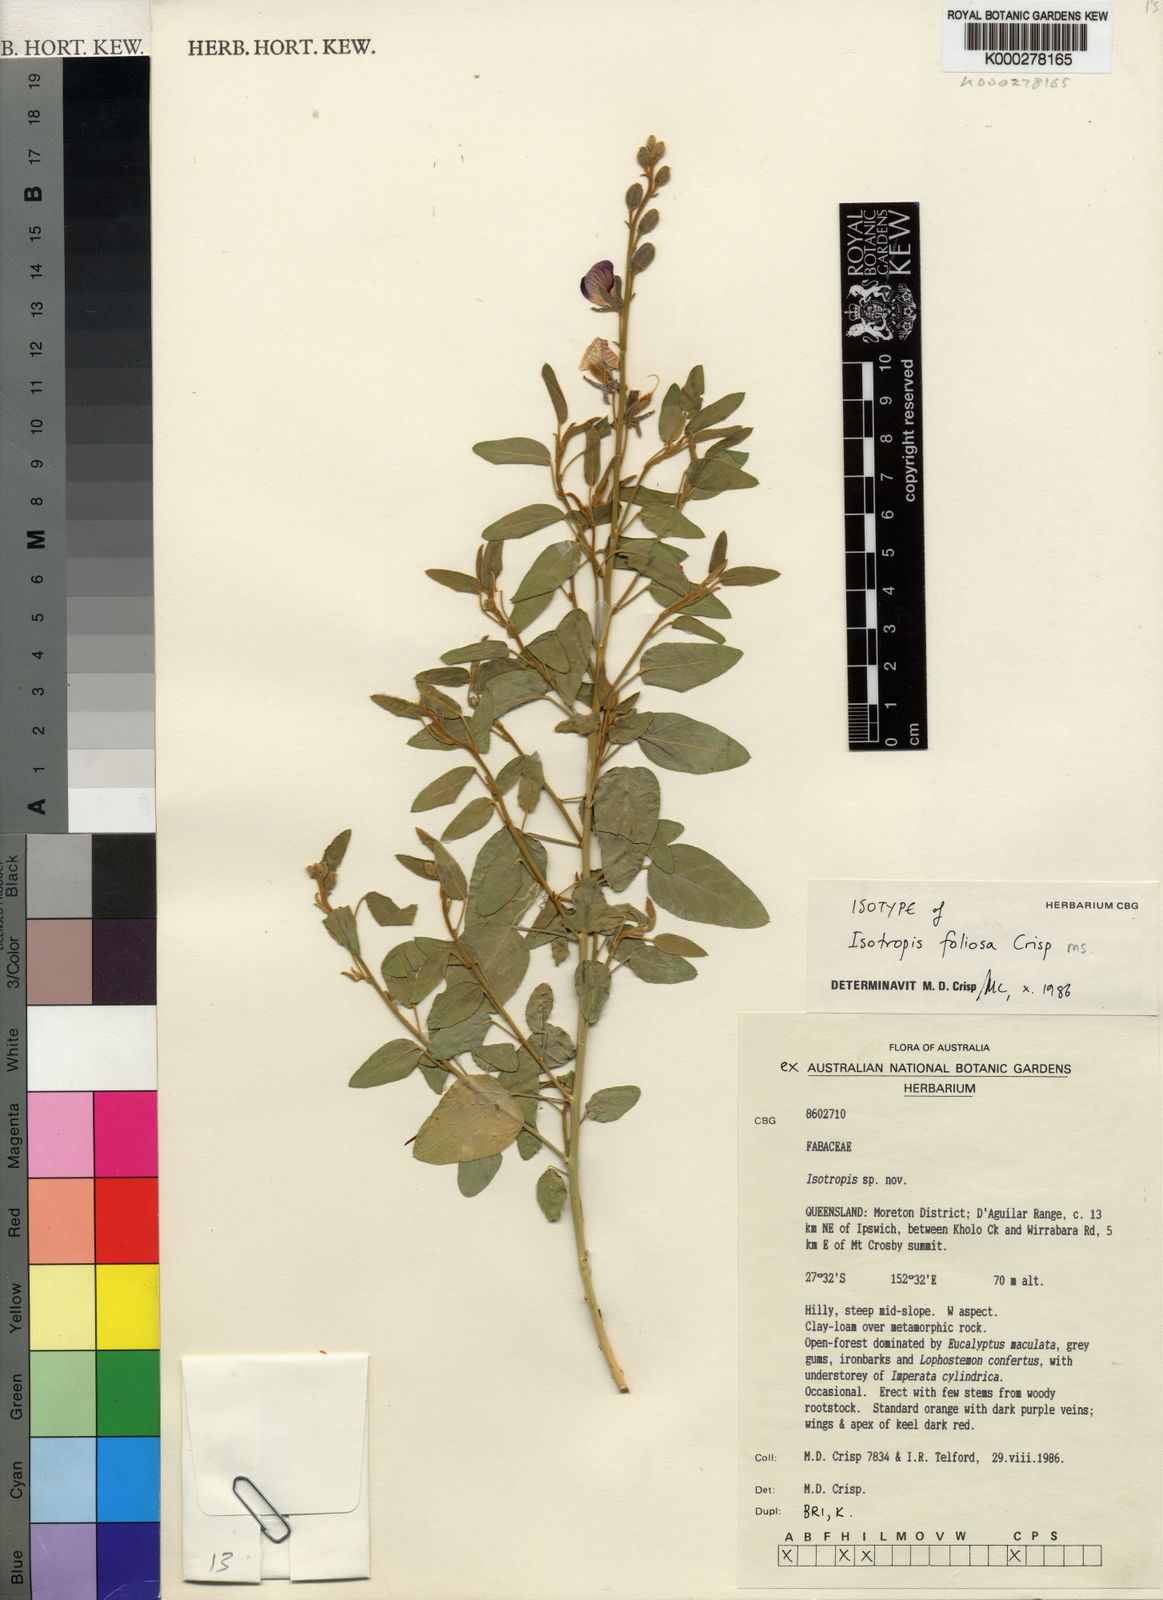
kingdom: Plantae
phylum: Tracheophyta
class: Magnoliopsida
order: Fabales
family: Fabaceae
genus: Isotropis
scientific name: Isotropis foliosa
